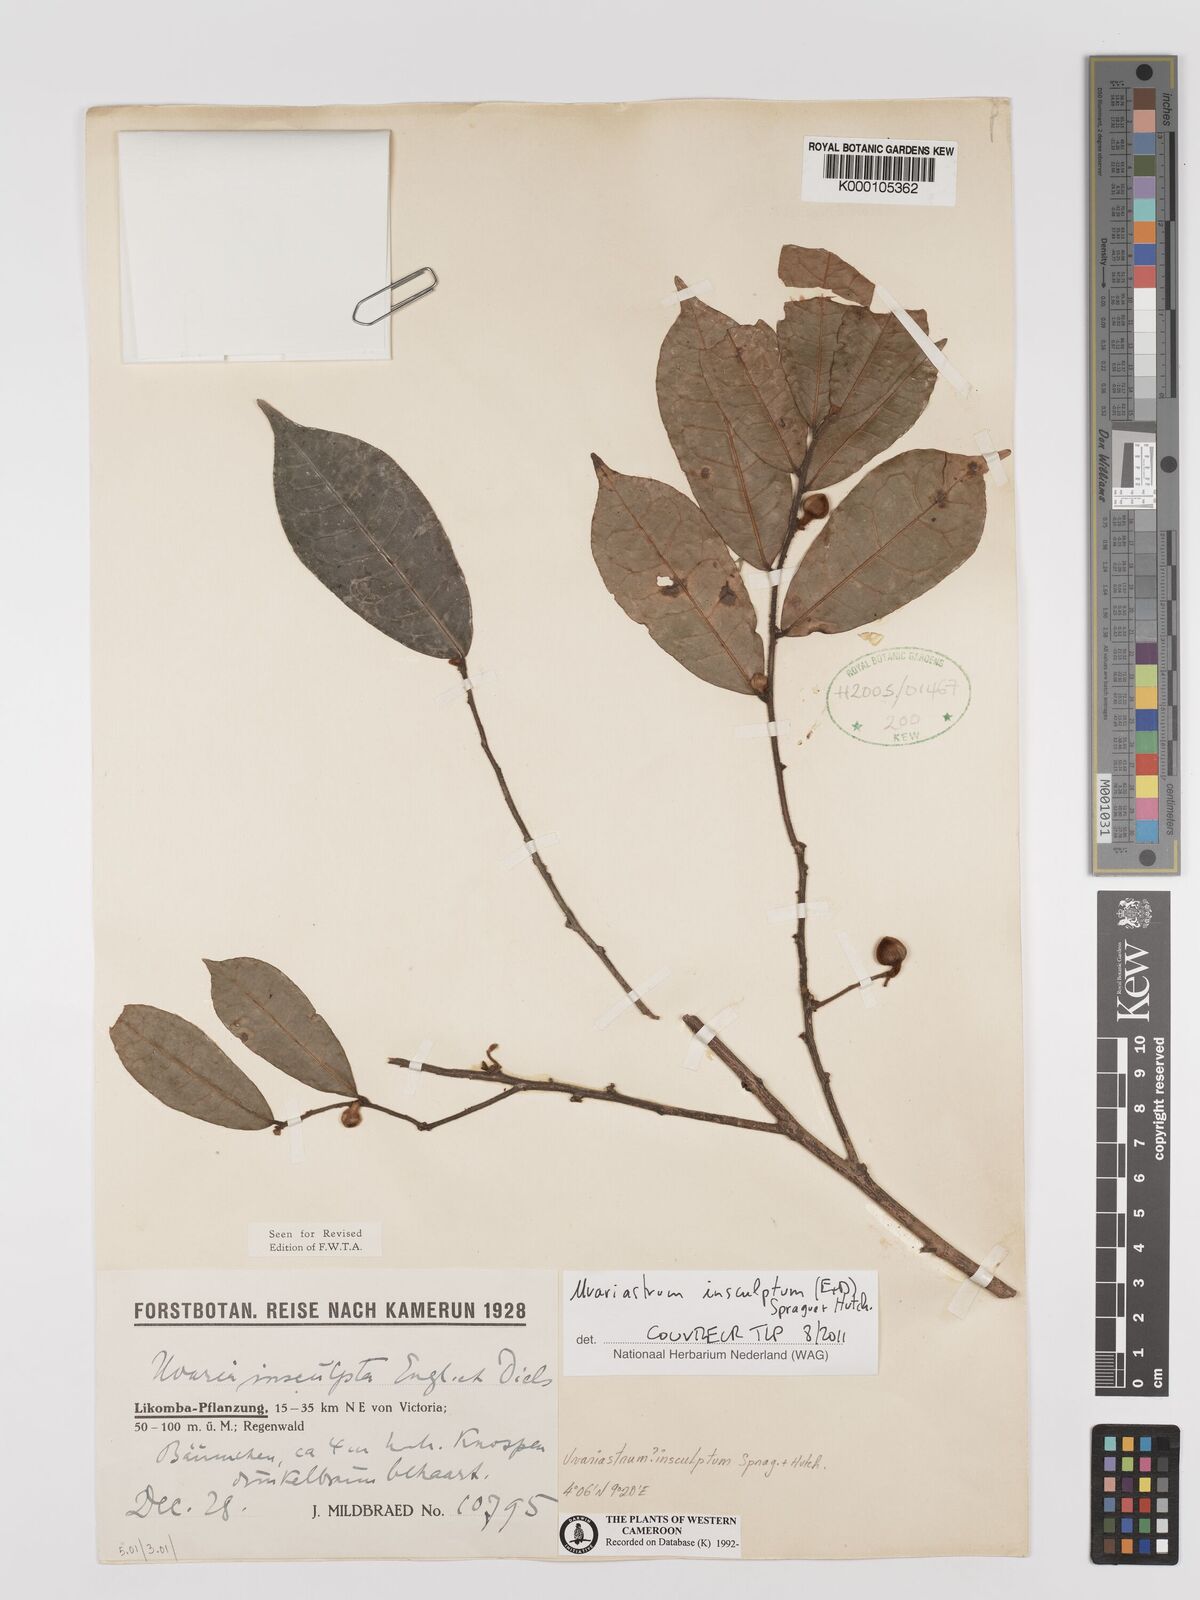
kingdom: Plantae
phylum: Tracheophyta
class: Magnoliopsida
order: Magnoliales
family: Annonaceae
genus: Uvariastrum
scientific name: Uvariastrum
